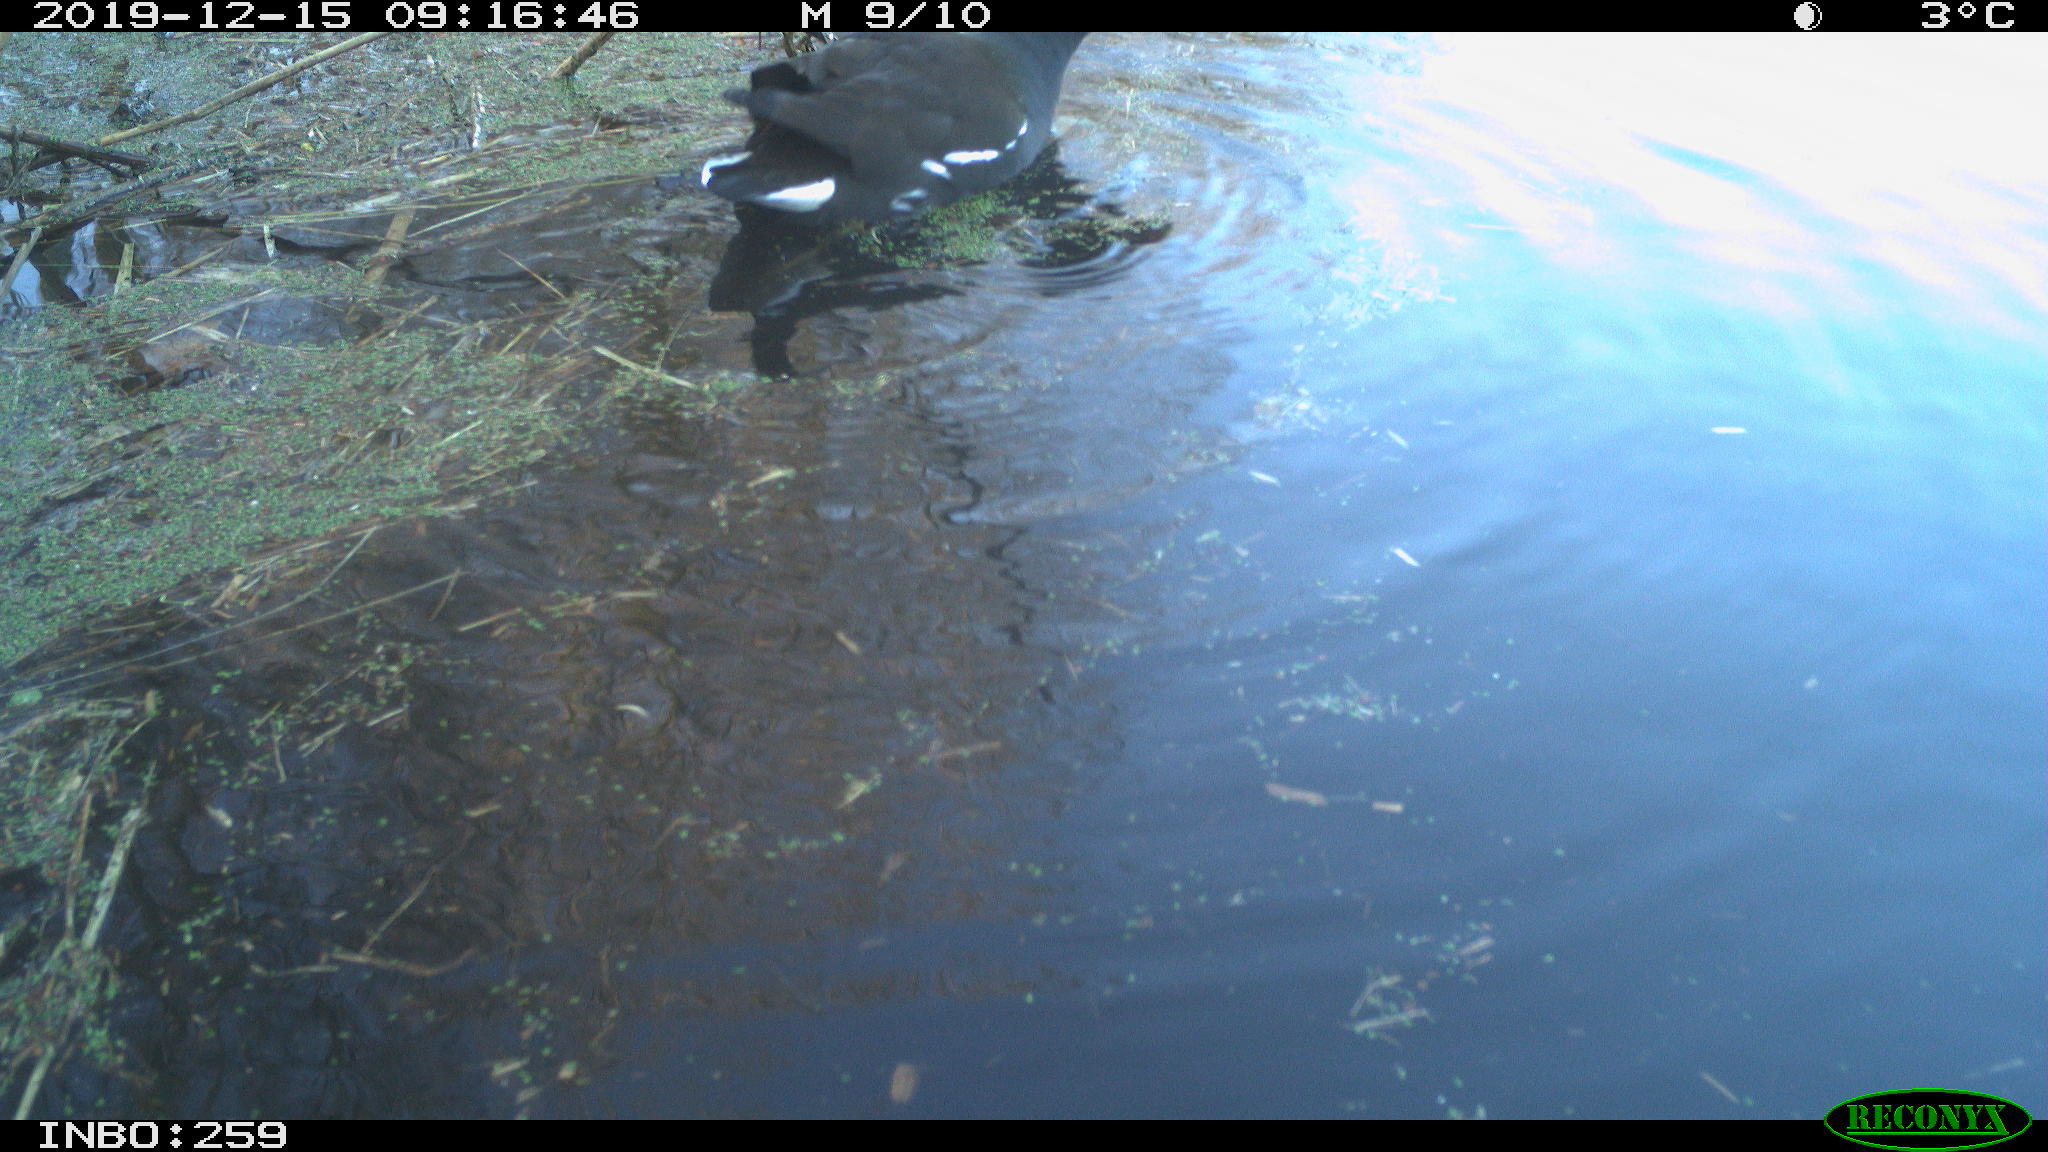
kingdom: Animalia
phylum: Chordata
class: Aves
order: Gruiformes
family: Rallidae
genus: Gallinula
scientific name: Gallinula chloropus
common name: Common moorhen
